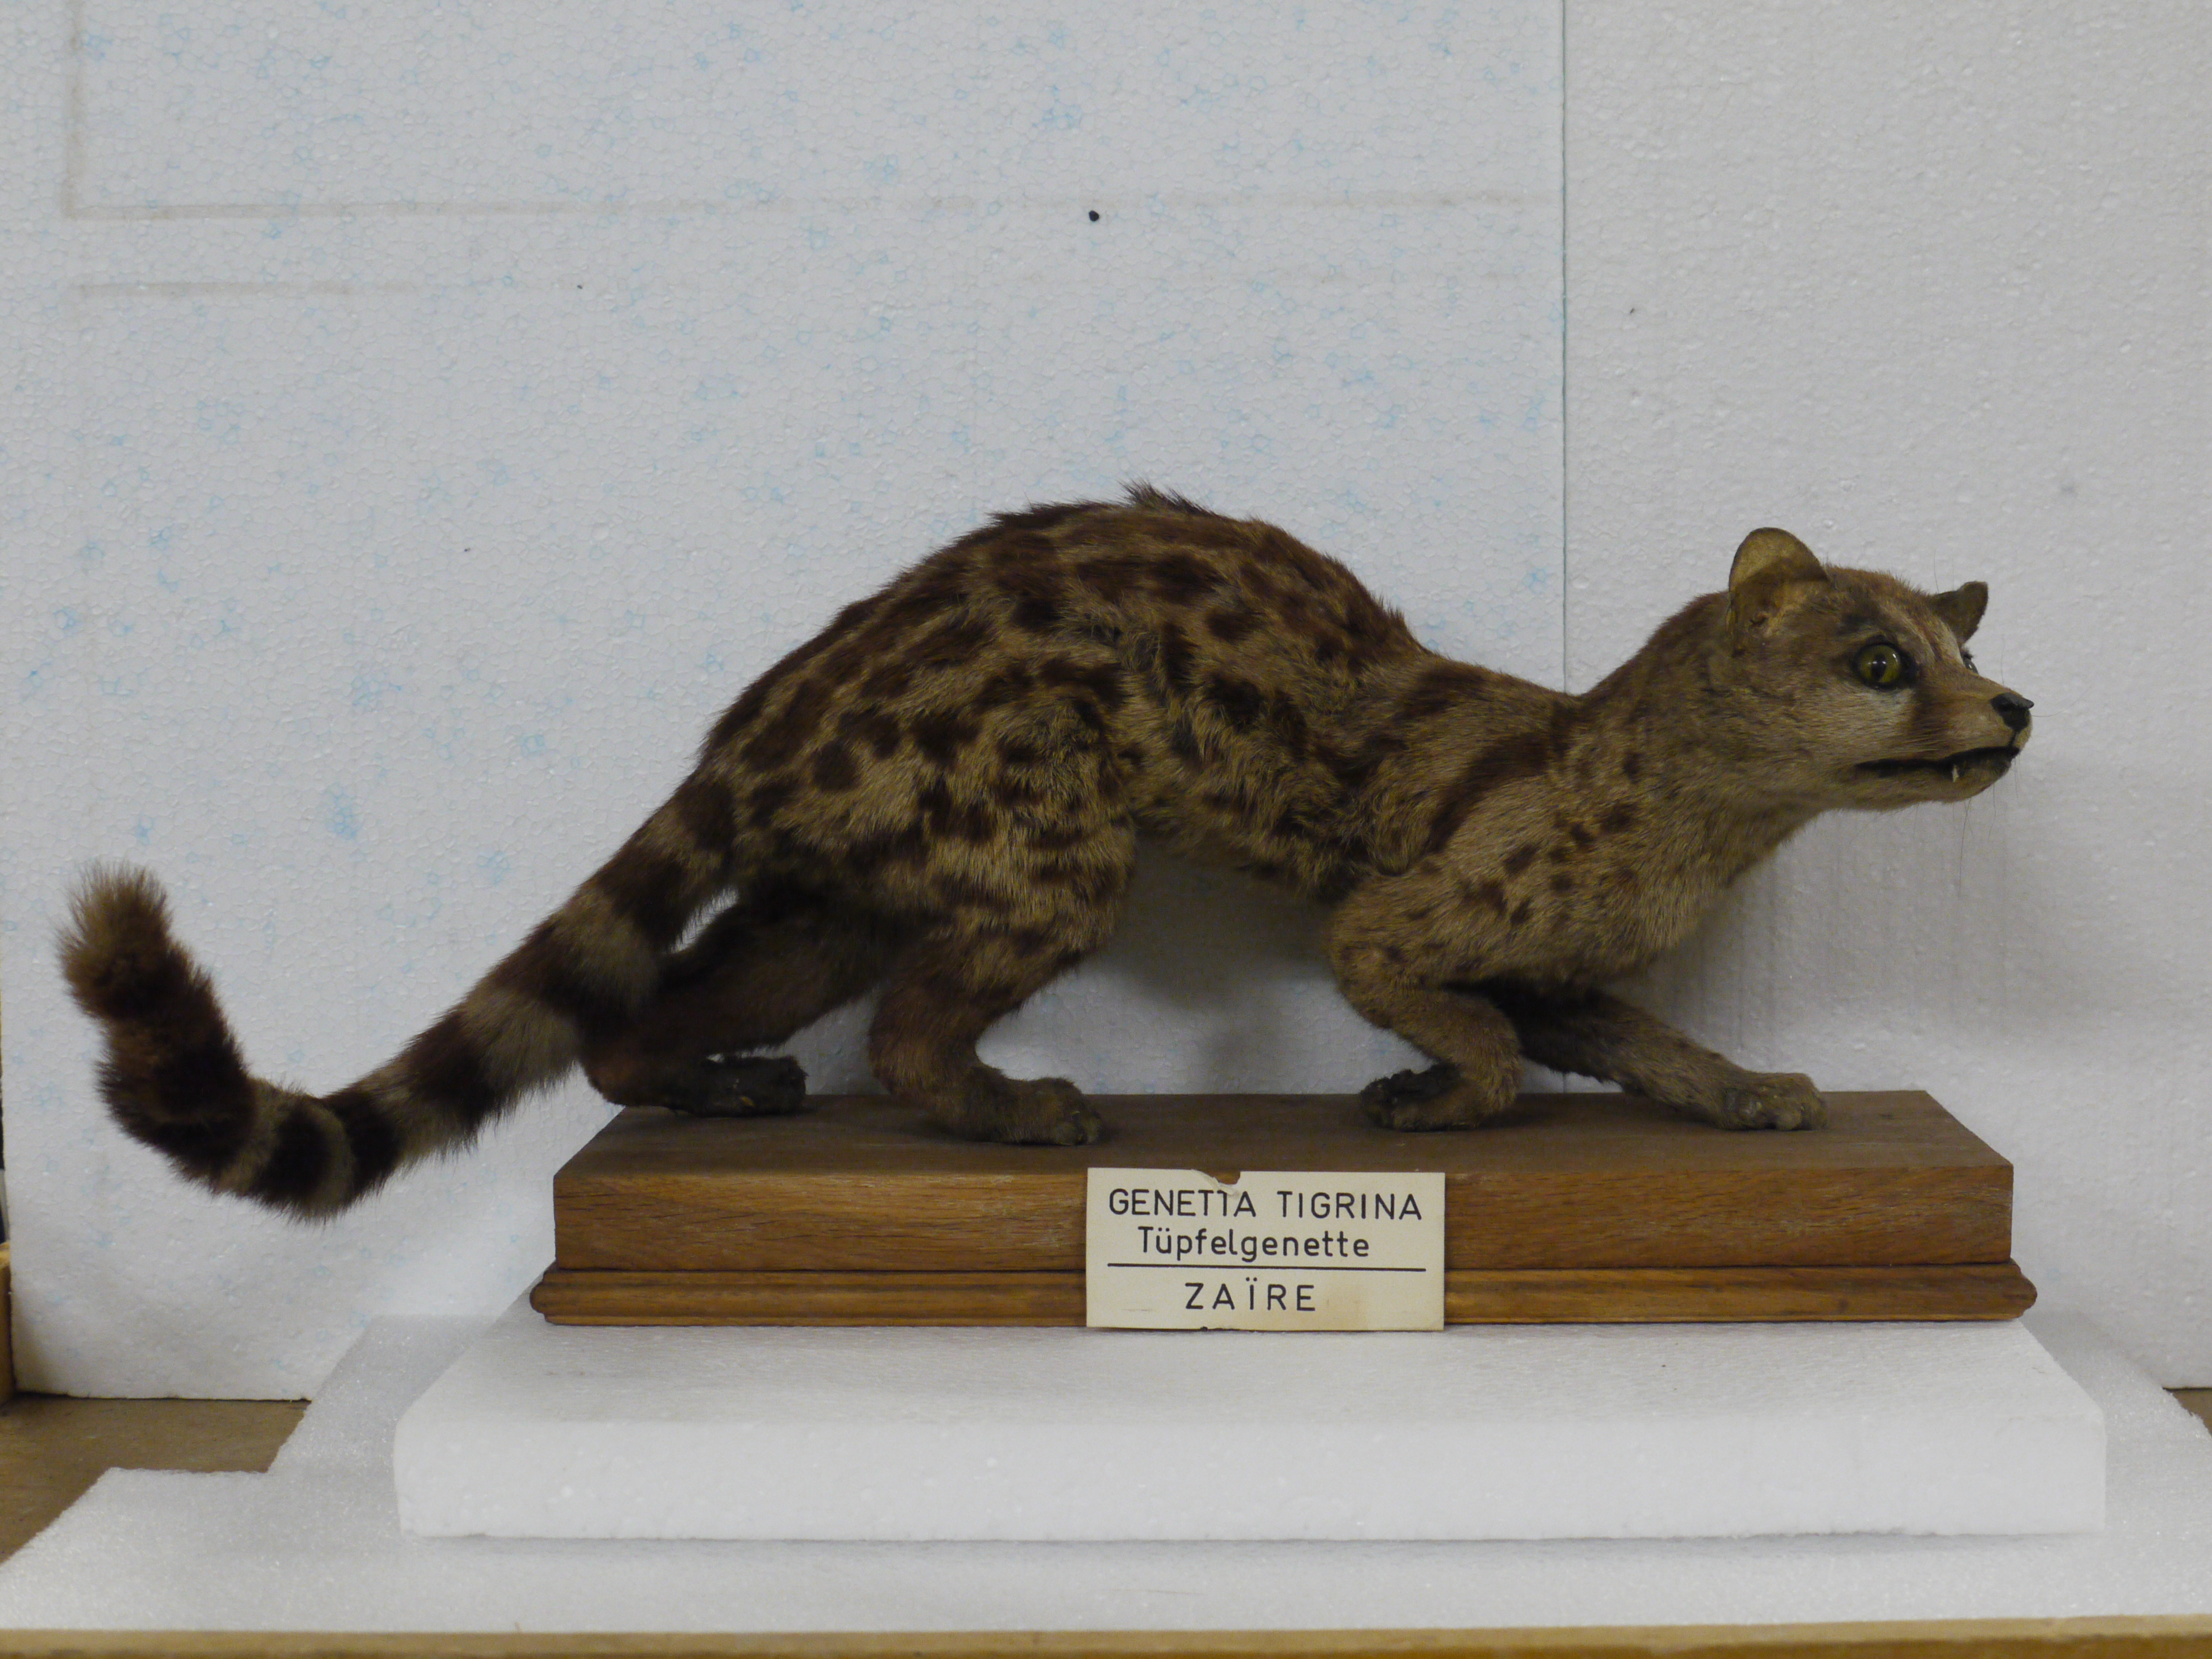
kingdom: Animalia
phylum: Chordata
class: Mammalia
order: Carnivora
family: Viverridae
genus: Genetta
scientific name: Genetta tigrina
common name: Cape genet
